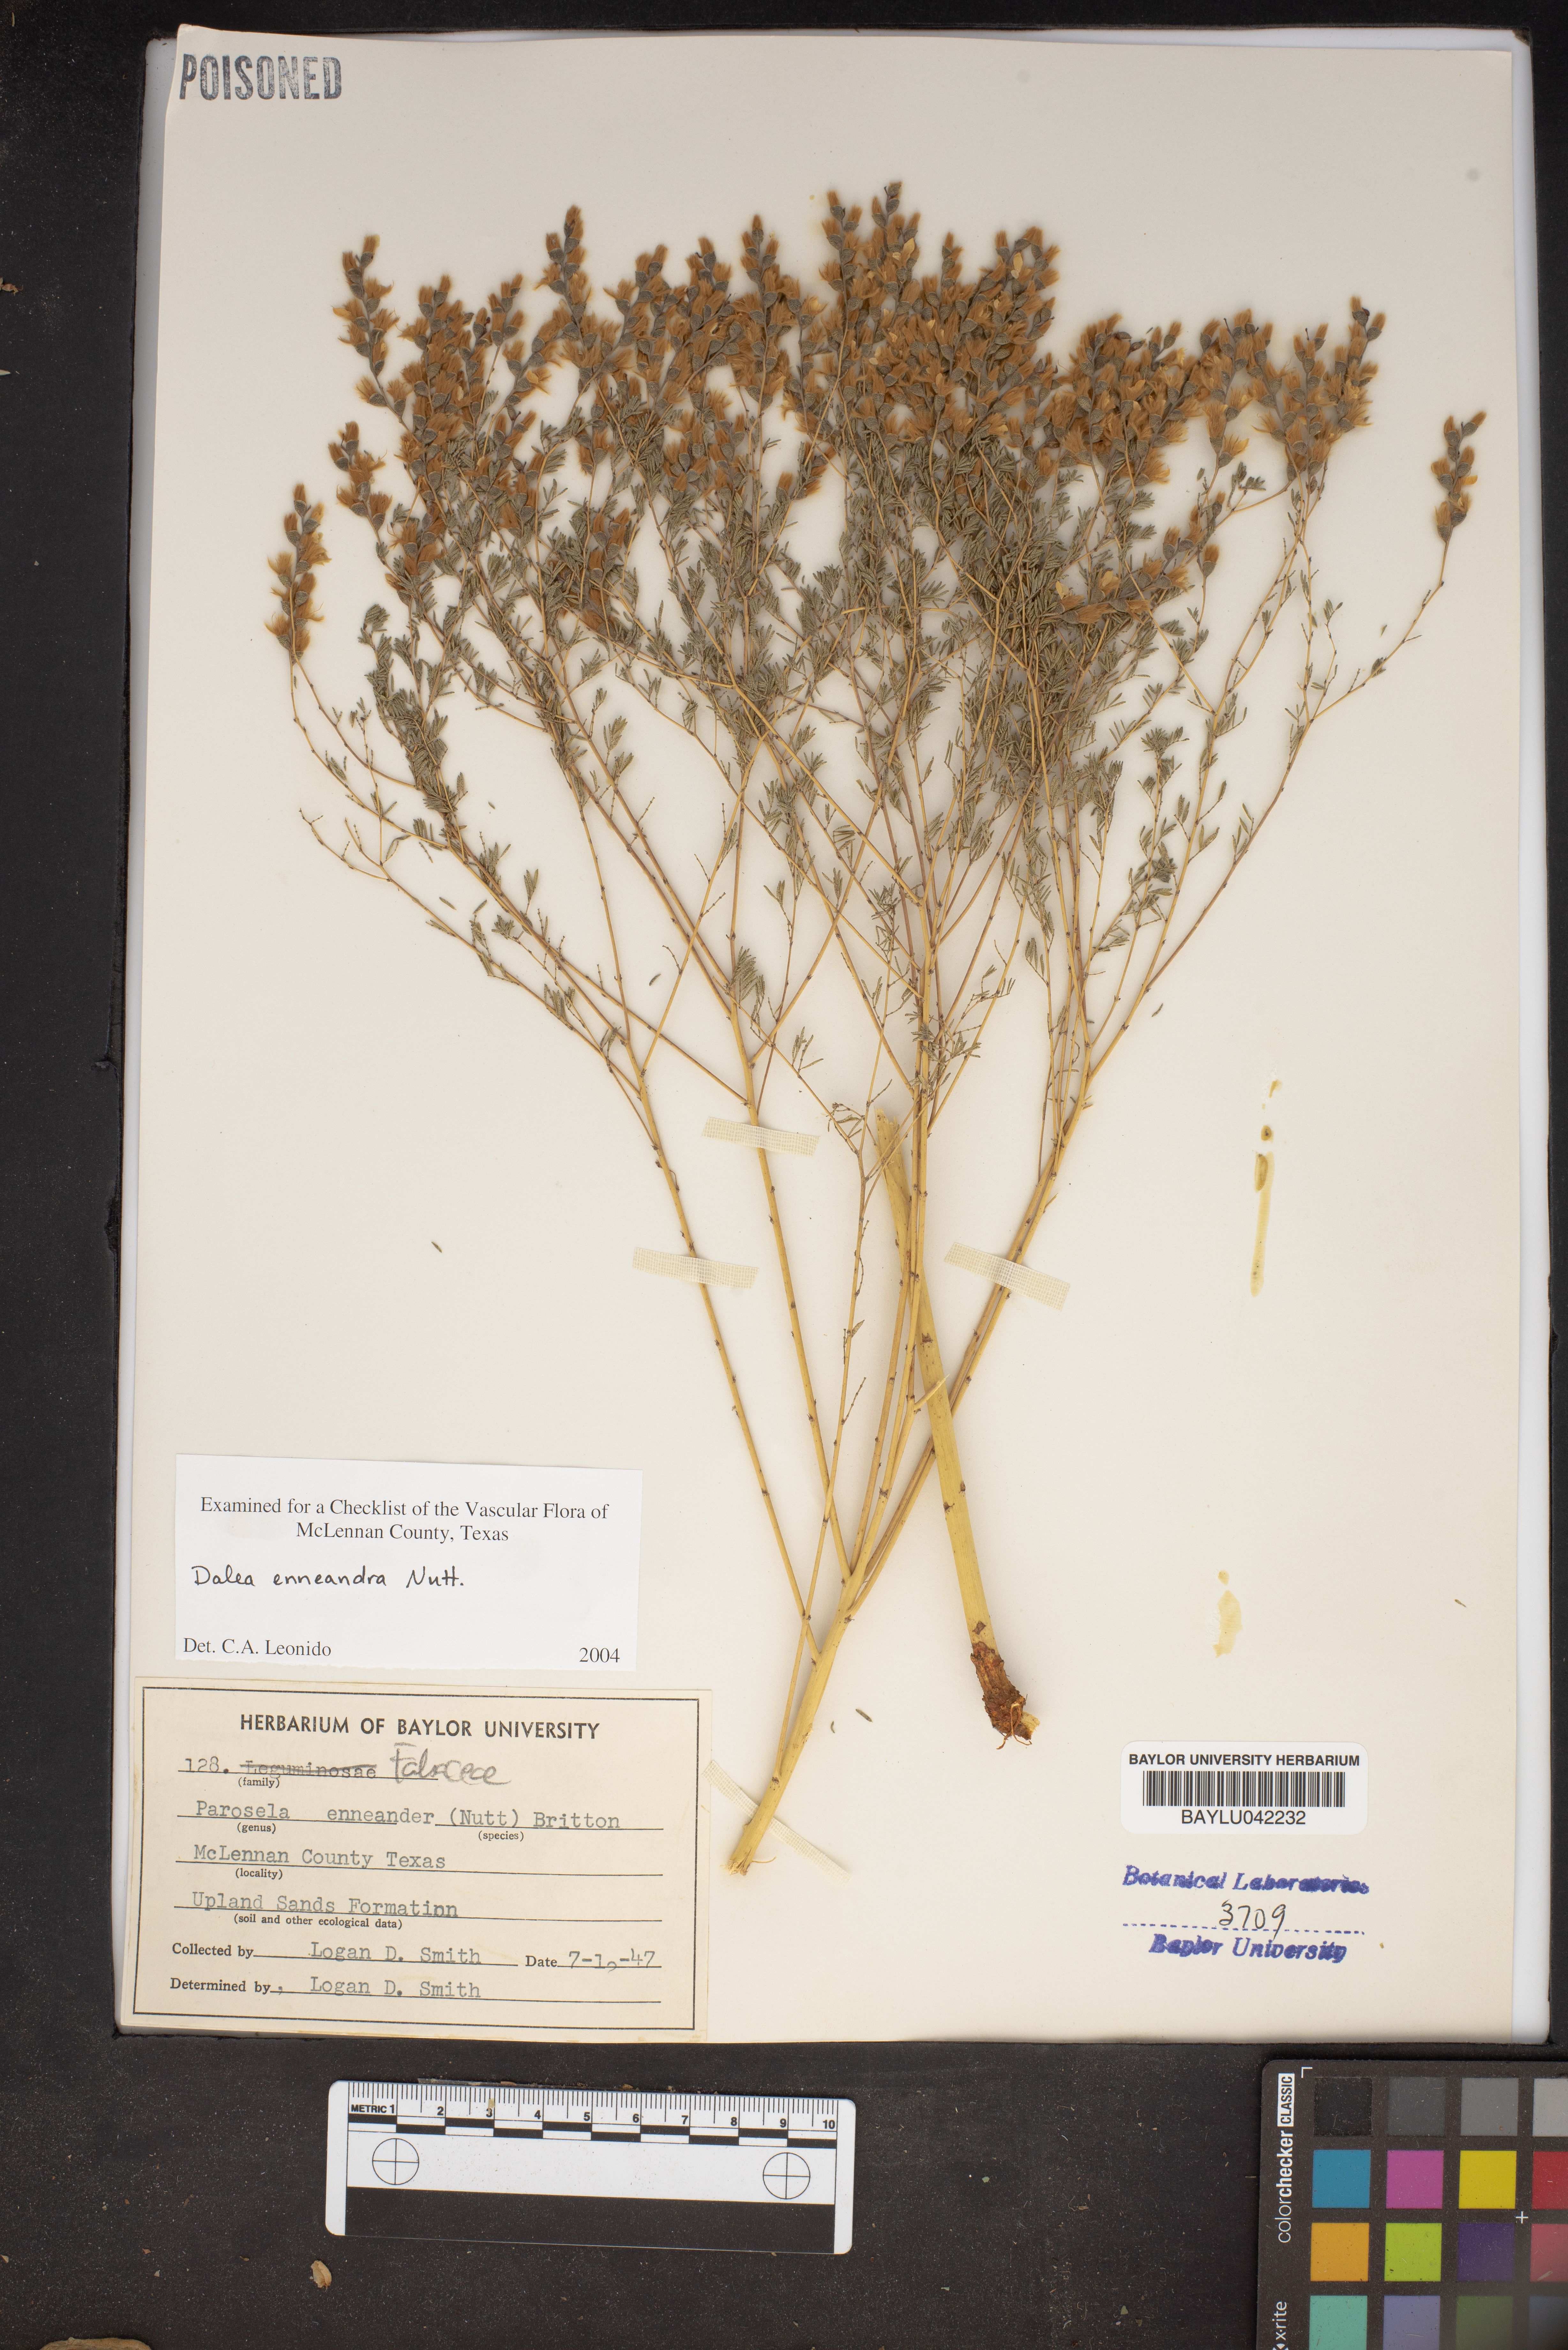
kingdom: Plantae
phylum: Tracheophyta
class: Magnoliopsida
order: Fabales
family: Fabaceae
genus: Dalea
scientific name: Dalea enneandra
